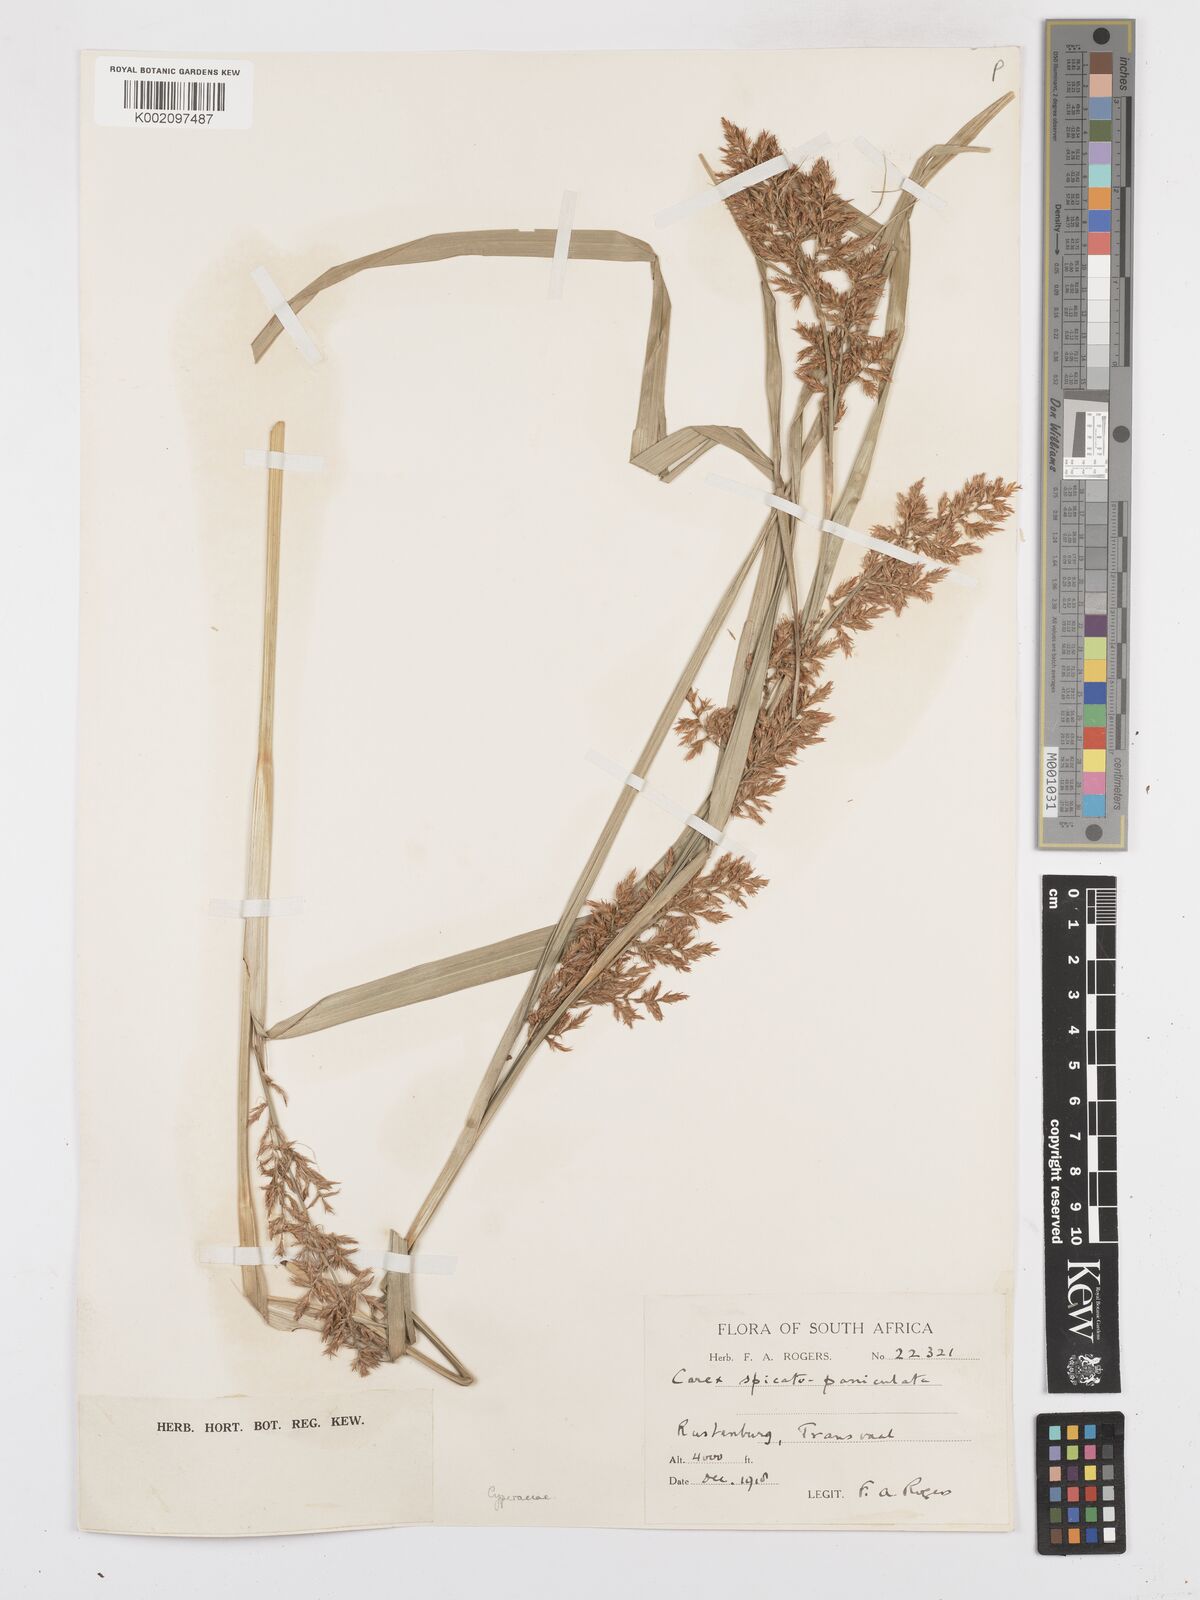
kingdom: Plantae
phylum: Tracheophyta
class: Liliopsida
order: Poales
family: Cyperaceae
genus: Carex
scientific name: Carex spicatopaniculata
